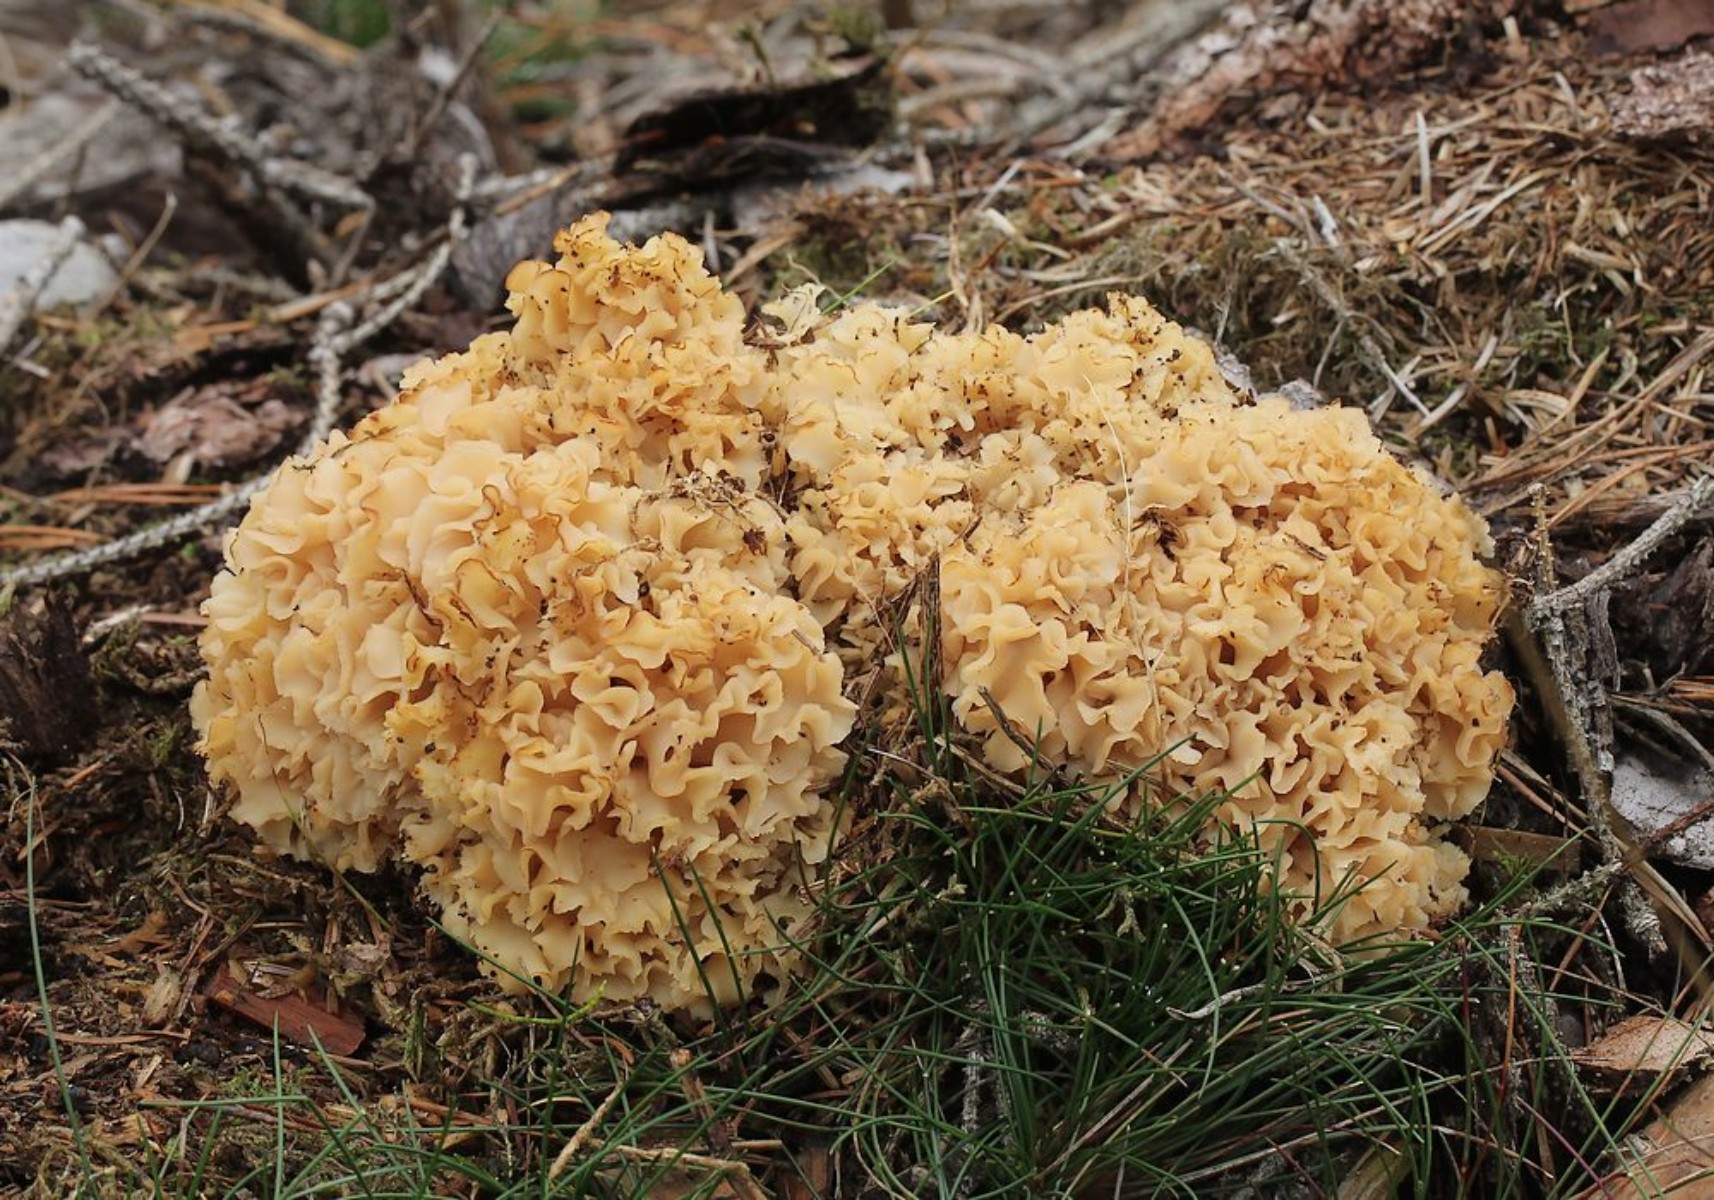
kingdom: Fungi
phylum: Basidiomycota
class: Agaricomycetes
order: Polyporales
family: Sparassidaceae
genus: Sparassis
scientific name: Sparassis crispa
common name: kruset blomkålssvamp
